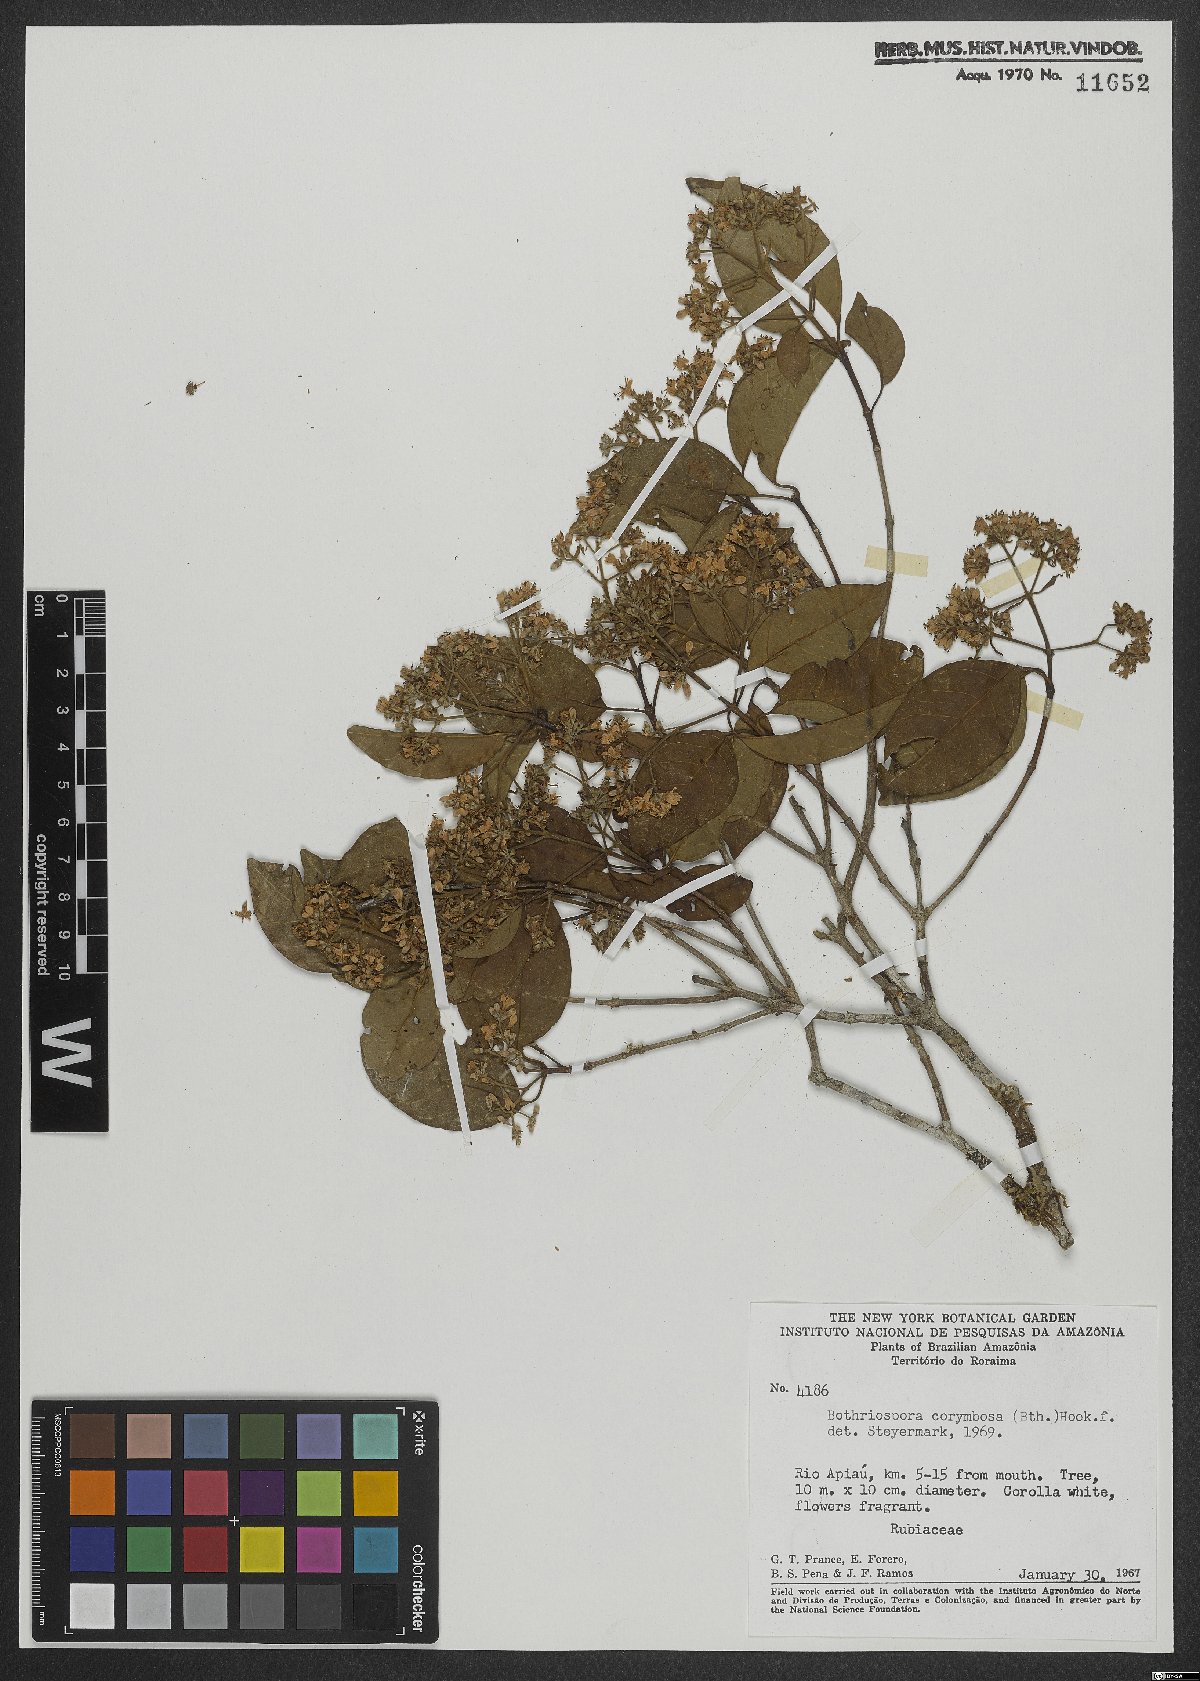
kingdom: Plantae
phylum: Tracheophyta
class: Magnoliopsida
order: Gentianales
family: Rubiaceae
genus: Bothriospora
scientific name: Bothriospora corymbosa
